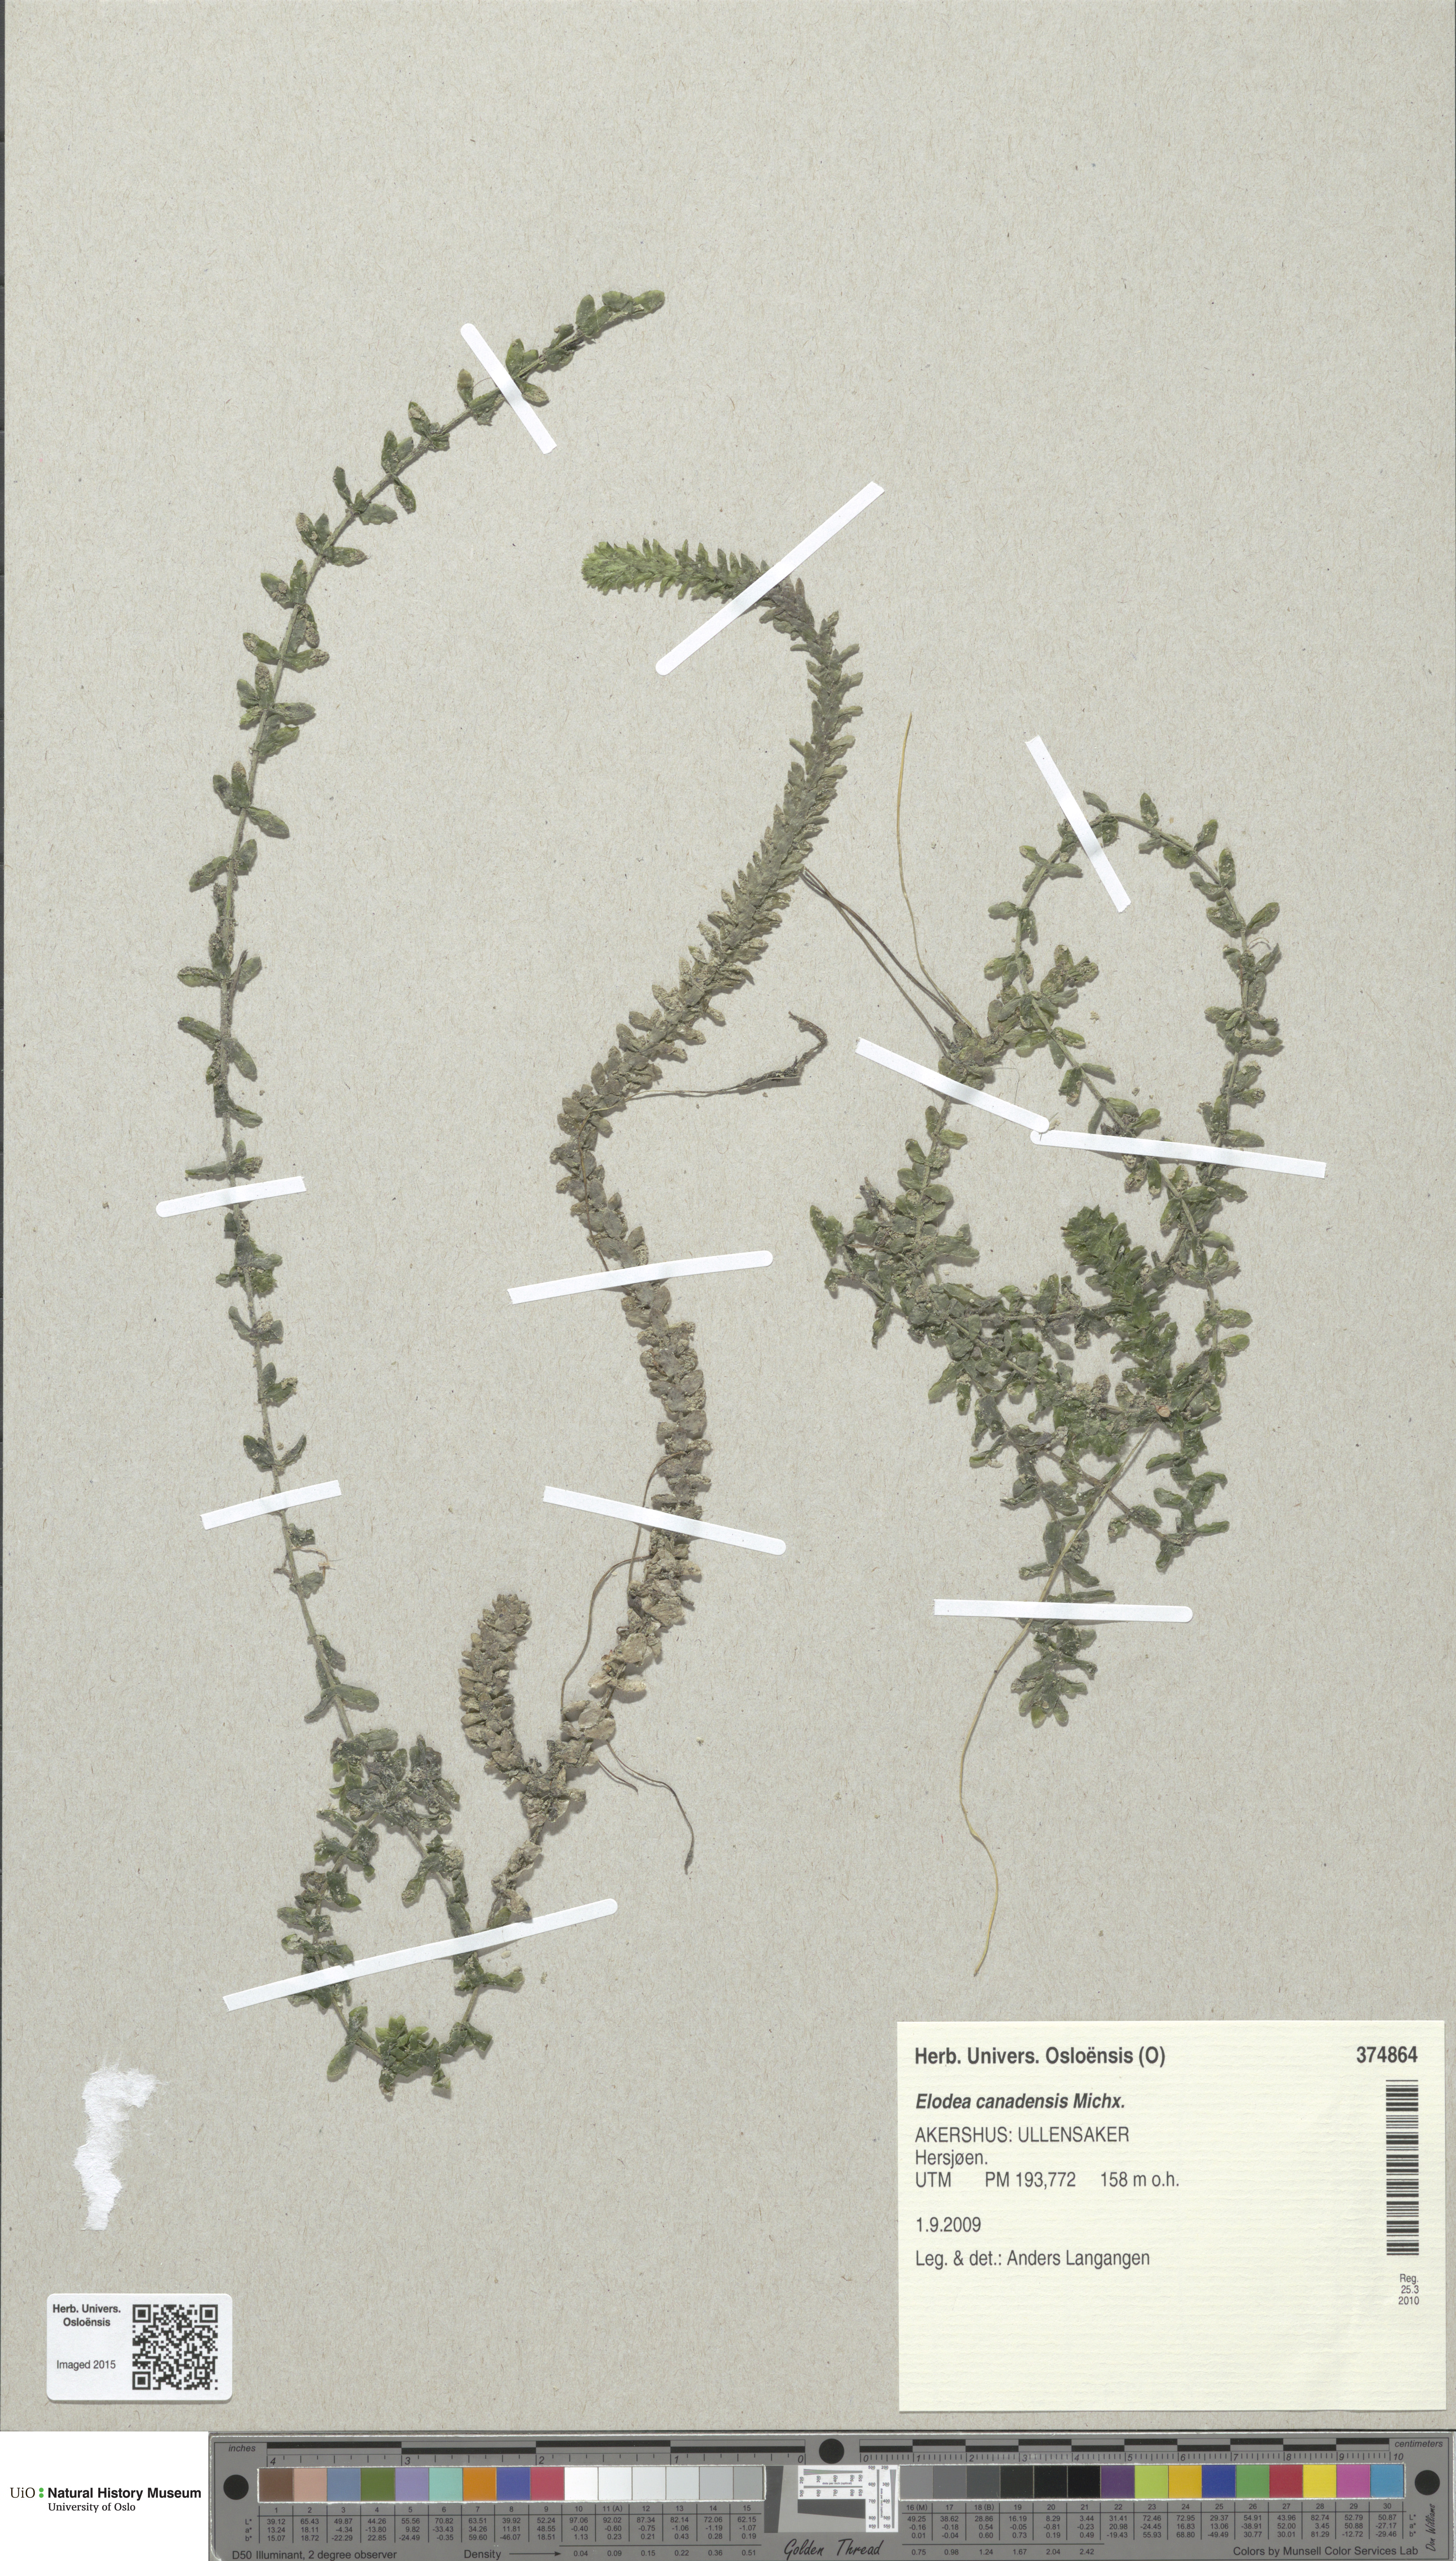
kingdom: Plantae
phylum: Tracheophyta
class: Liliopsida
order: Alismatales
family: Hydrocharitaceae
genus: Elodea
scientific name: Elodea canadensis
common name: Canadian waterweed
